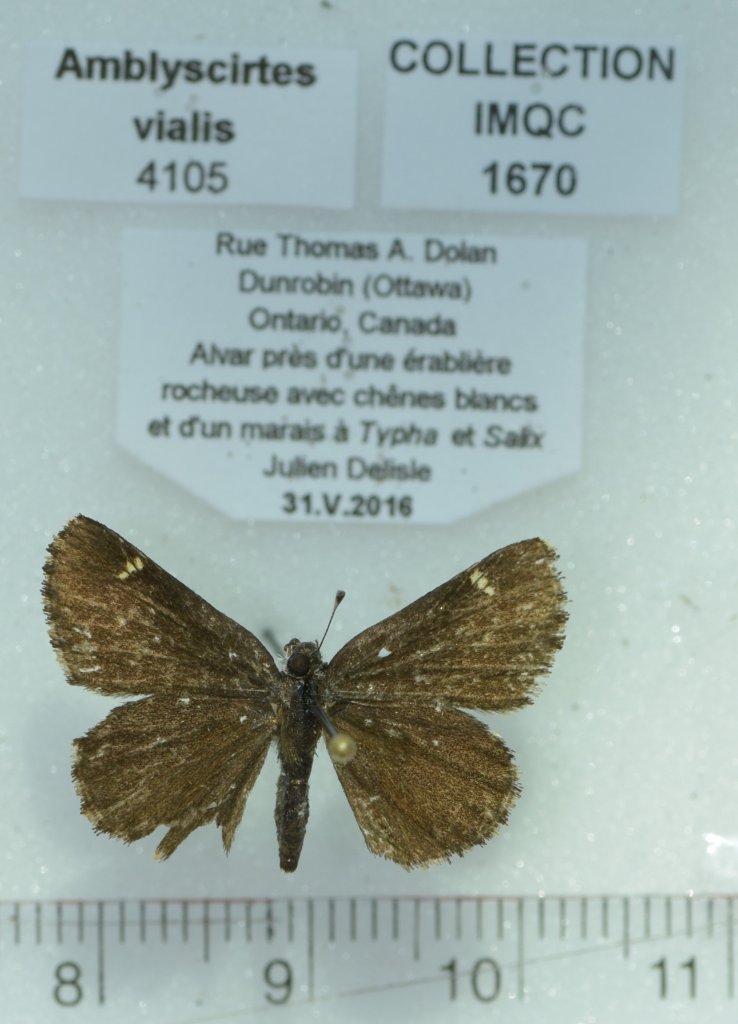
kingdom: Animalia
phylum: Arthropoda
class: Insecta
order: Lepidoptera
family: Hesperiidae
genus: Mastor
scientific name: Mastor vialis
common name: Common Roadside-Skipper
